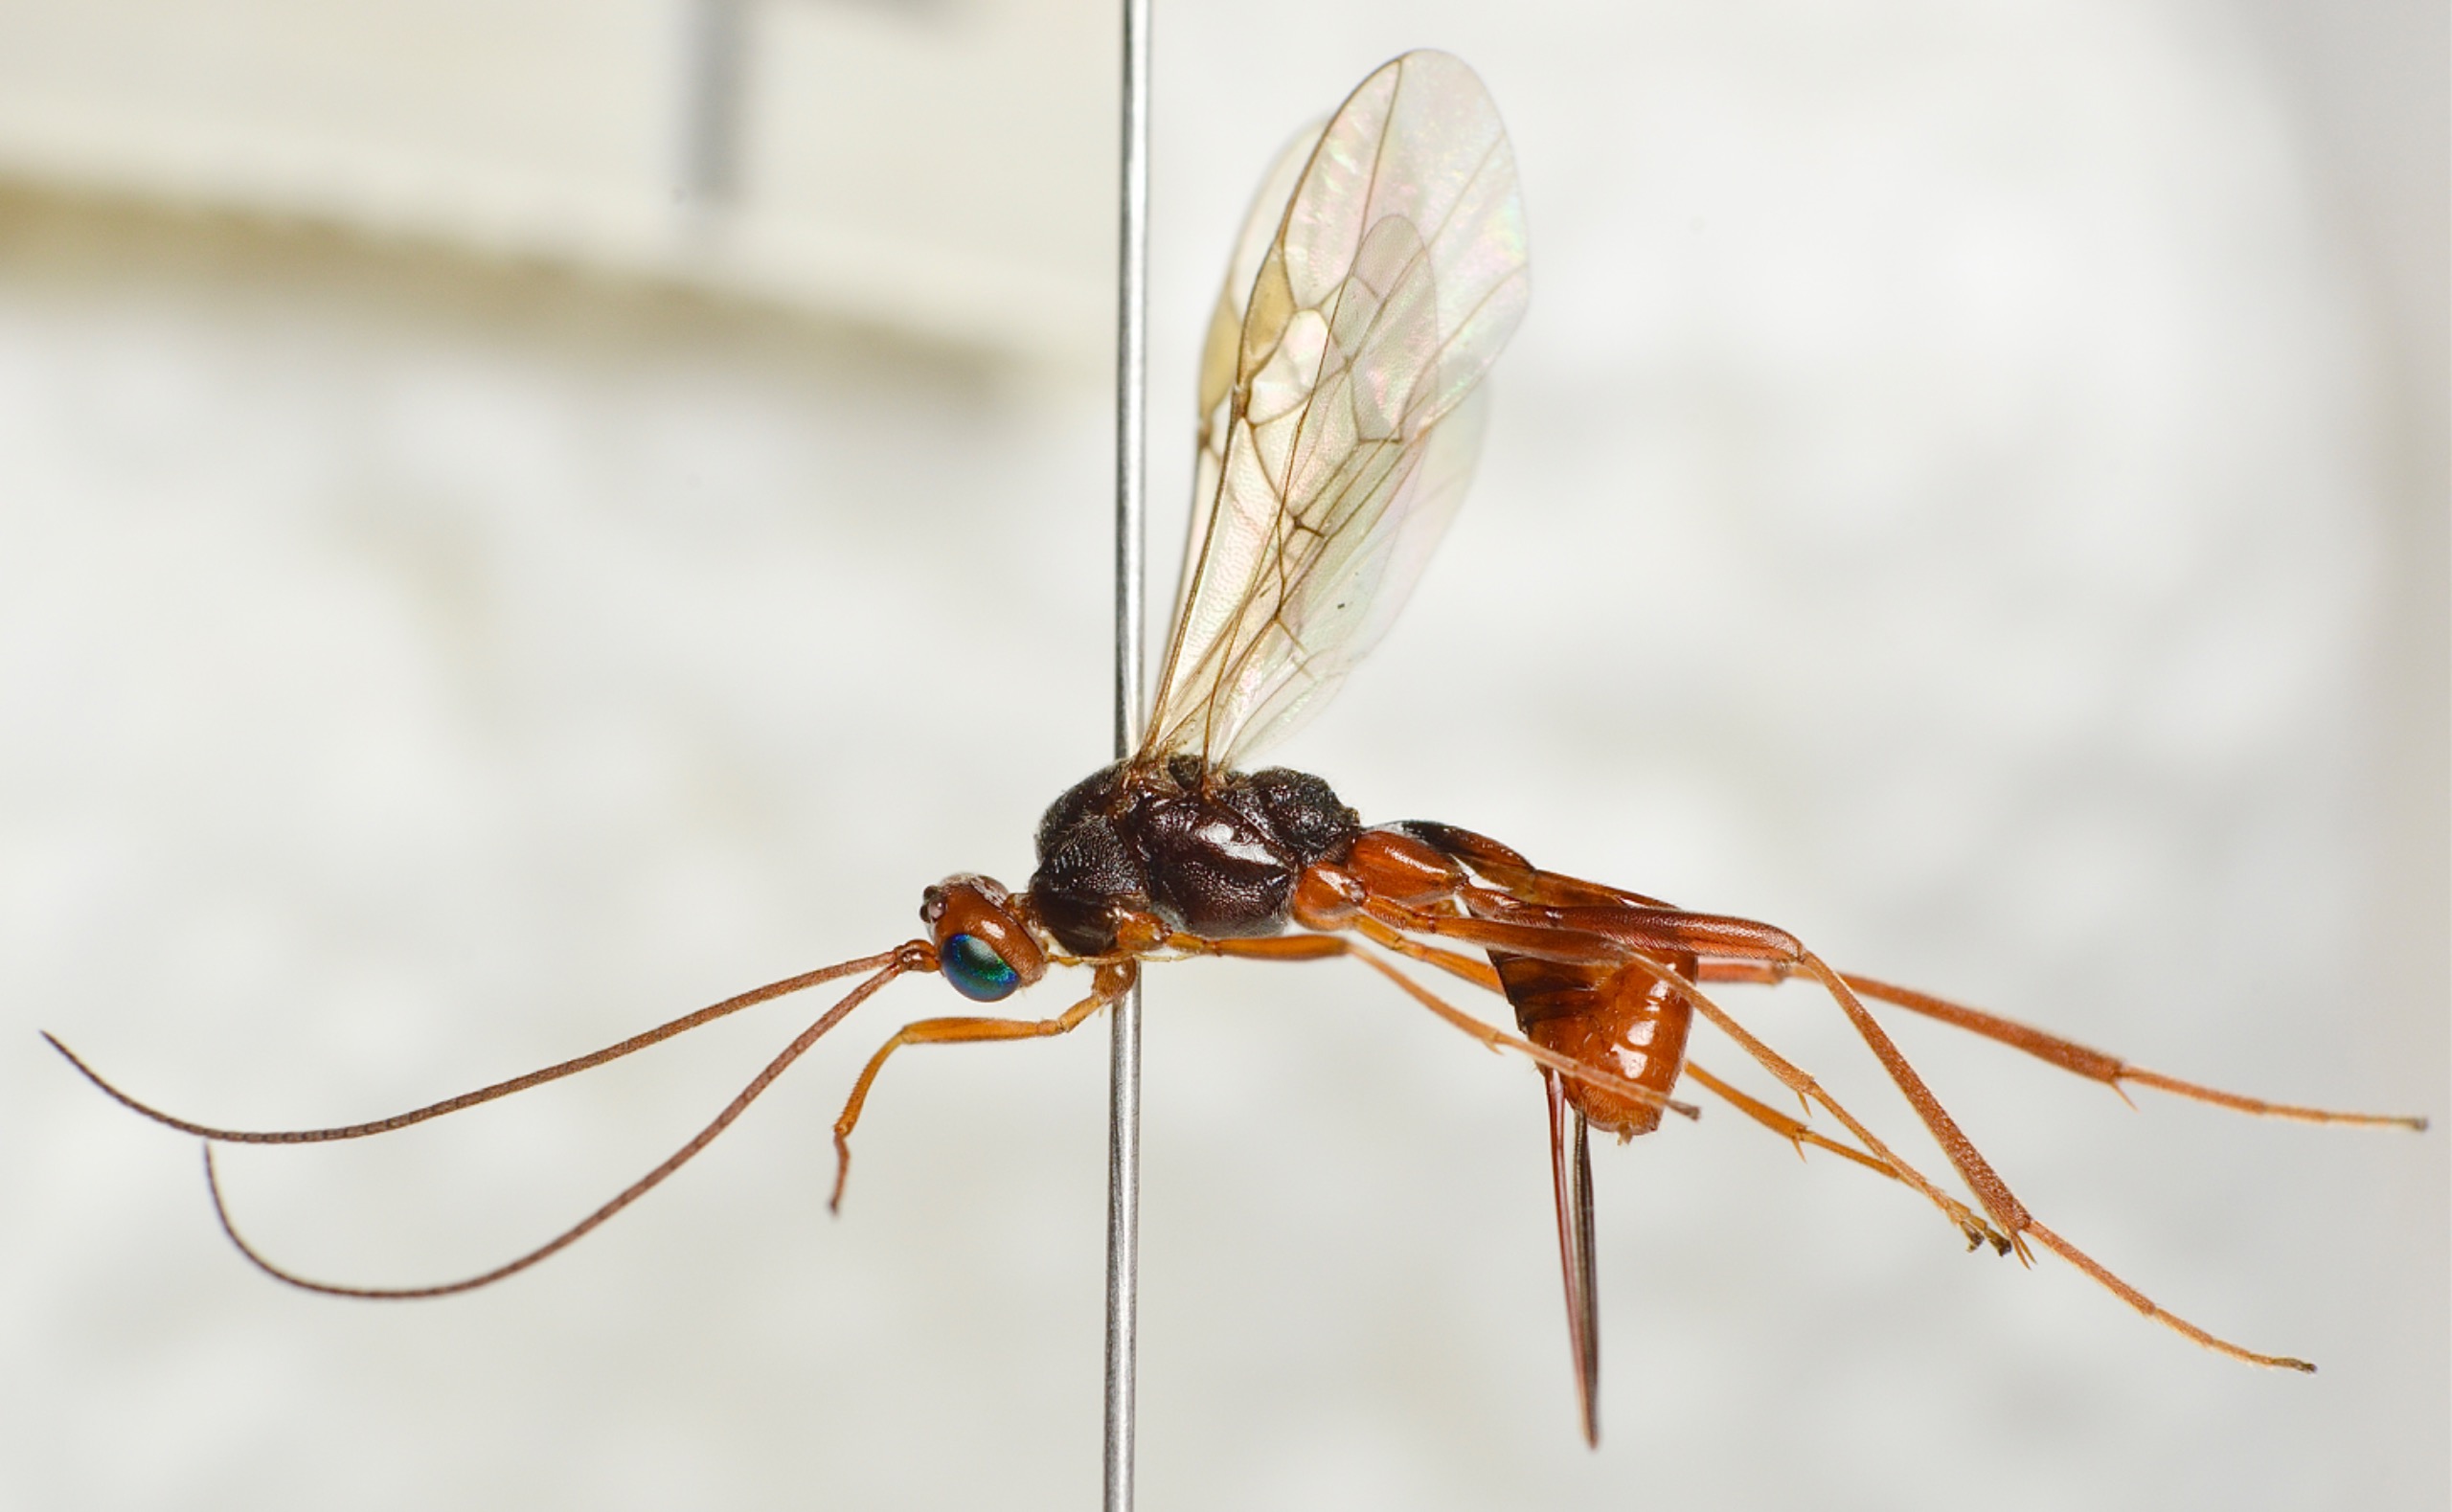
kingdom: Animalia
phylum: Arthropoda
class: Insecta
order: Hymenoptera
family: Braconidae
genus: Zele
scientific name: Zele chlorophthalmus
